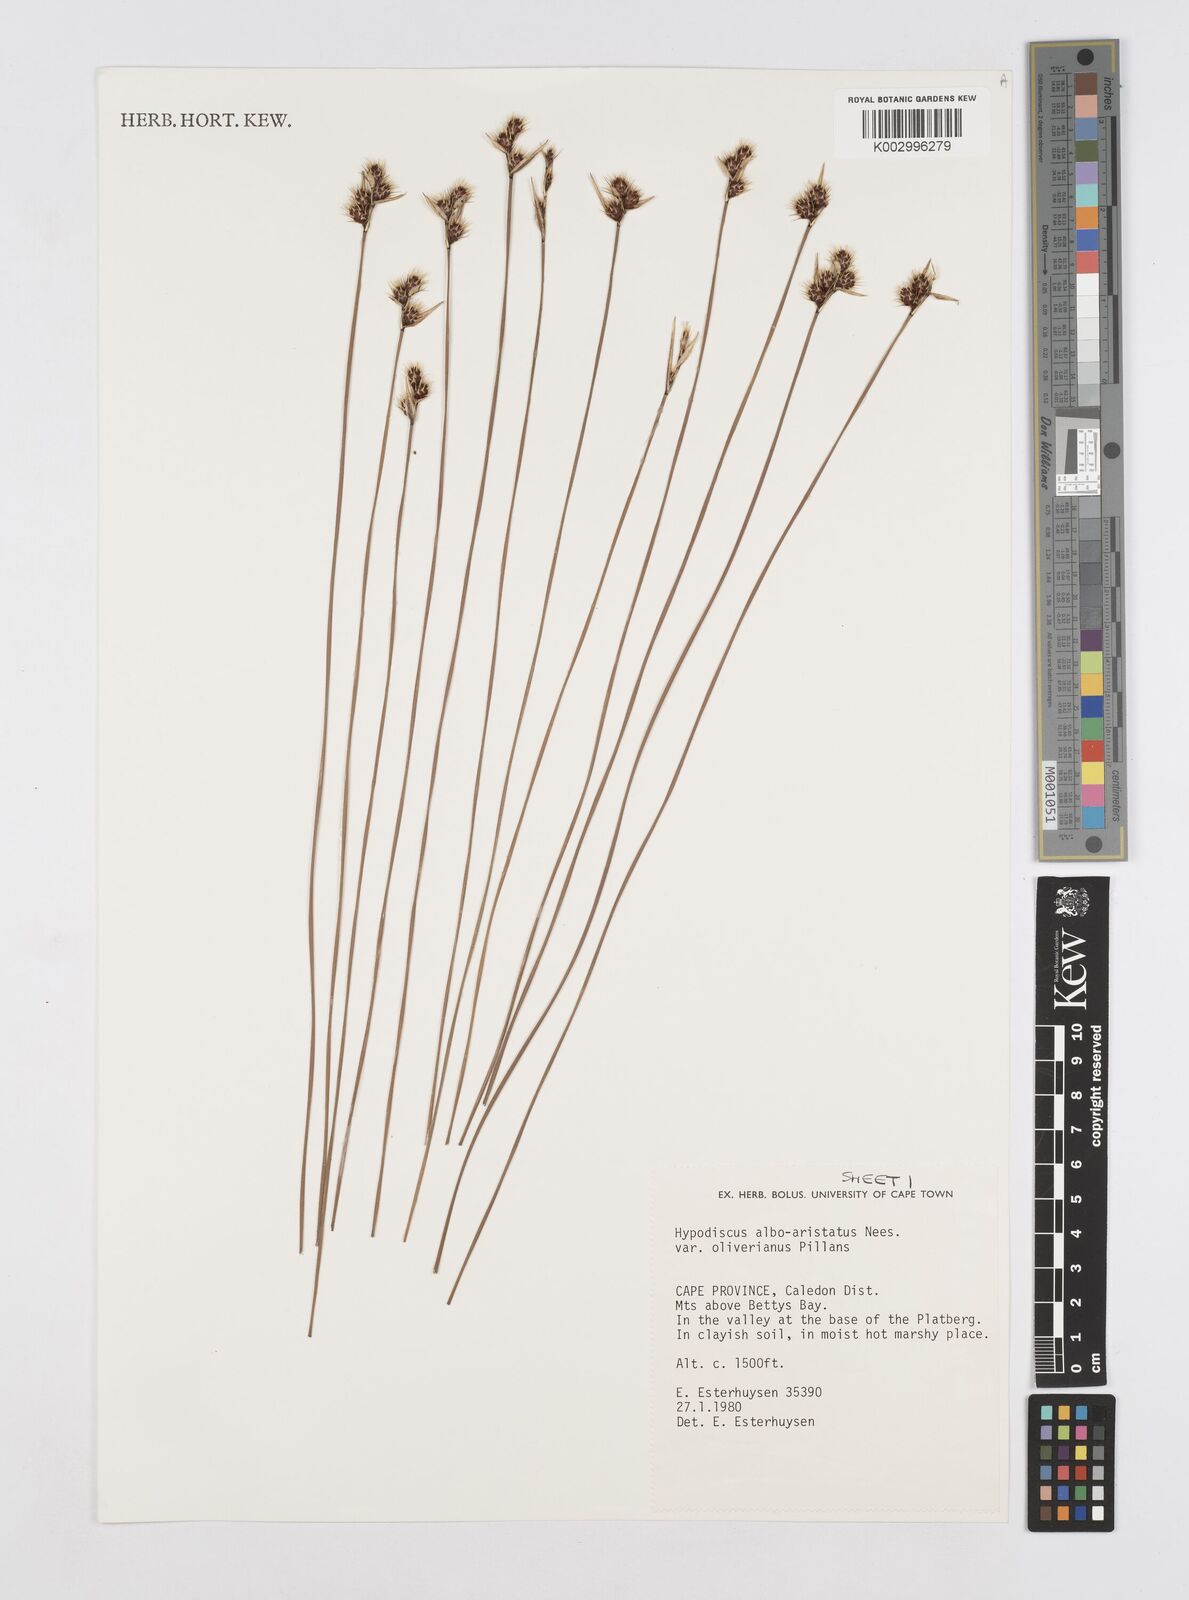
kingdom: Plantae
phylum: Tracheophyta
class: Liliopsida
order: Poales
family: Restionaceae
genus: Hypodiscus
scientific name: Hypodiscus alboaristatus
